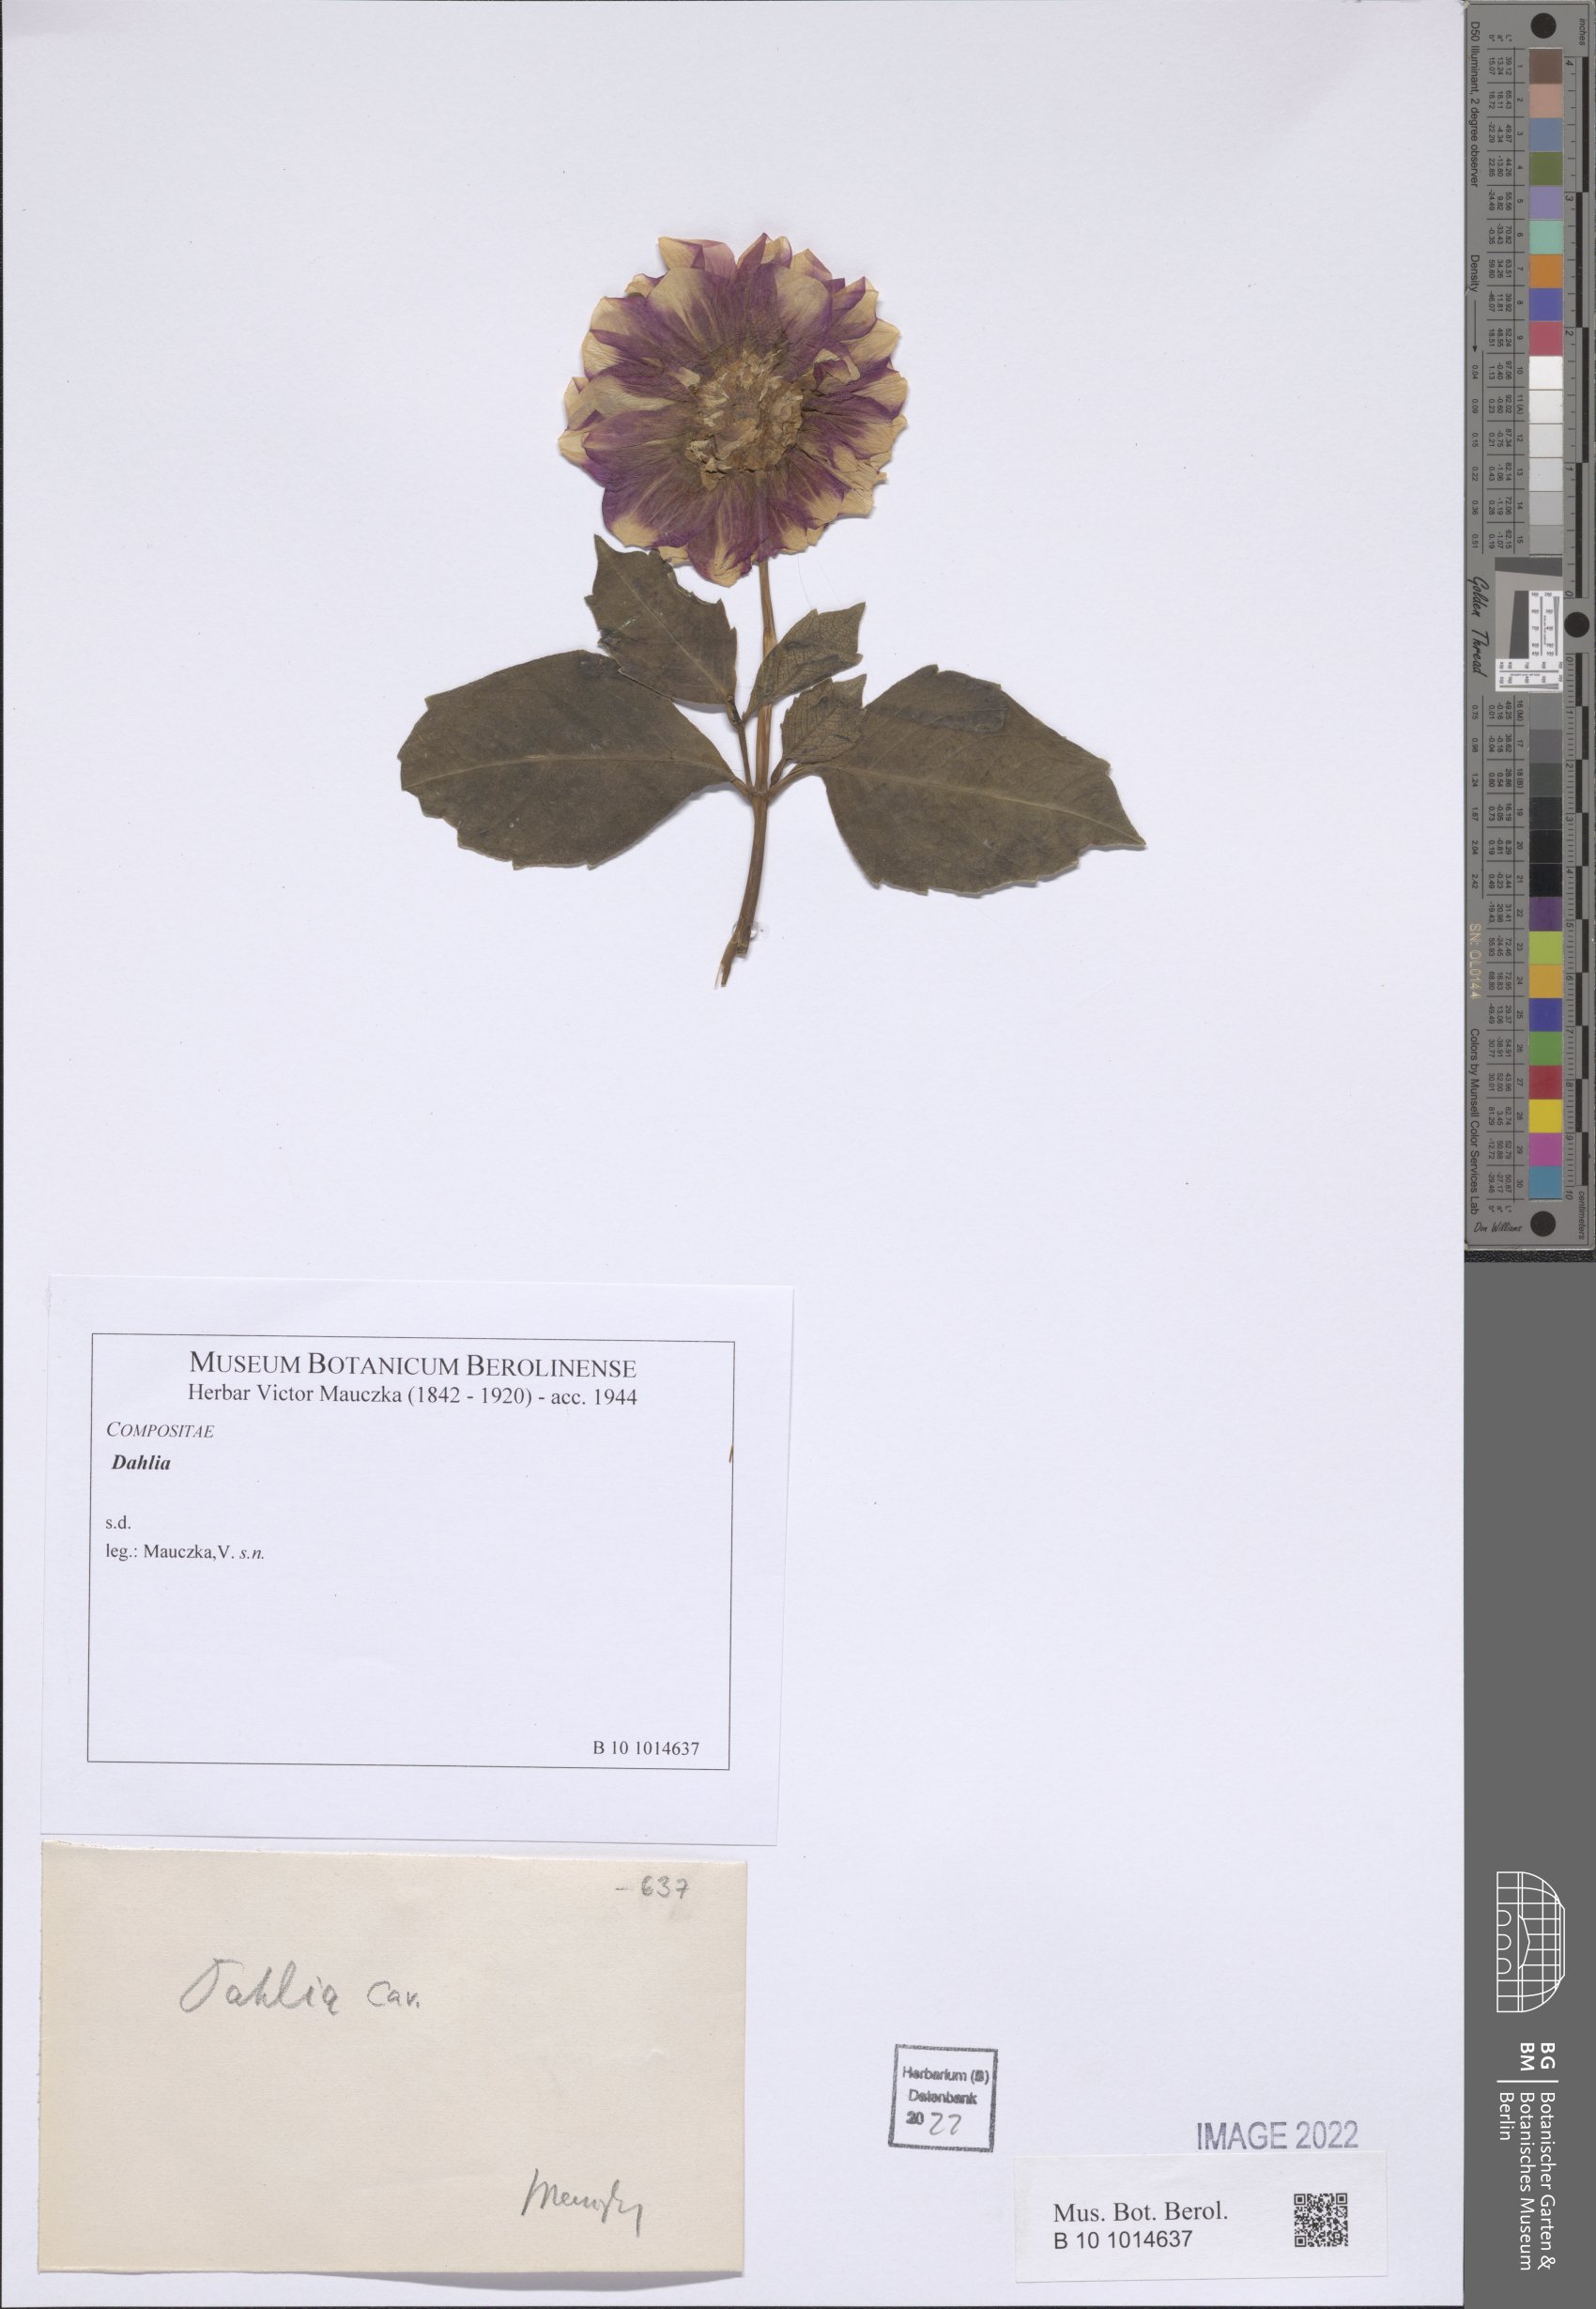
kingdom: Plantae
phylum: Tracheophyta
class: Magnoliopsida
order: Asterales
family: Asteraceae
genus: Dahlia
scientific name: Dahlia
